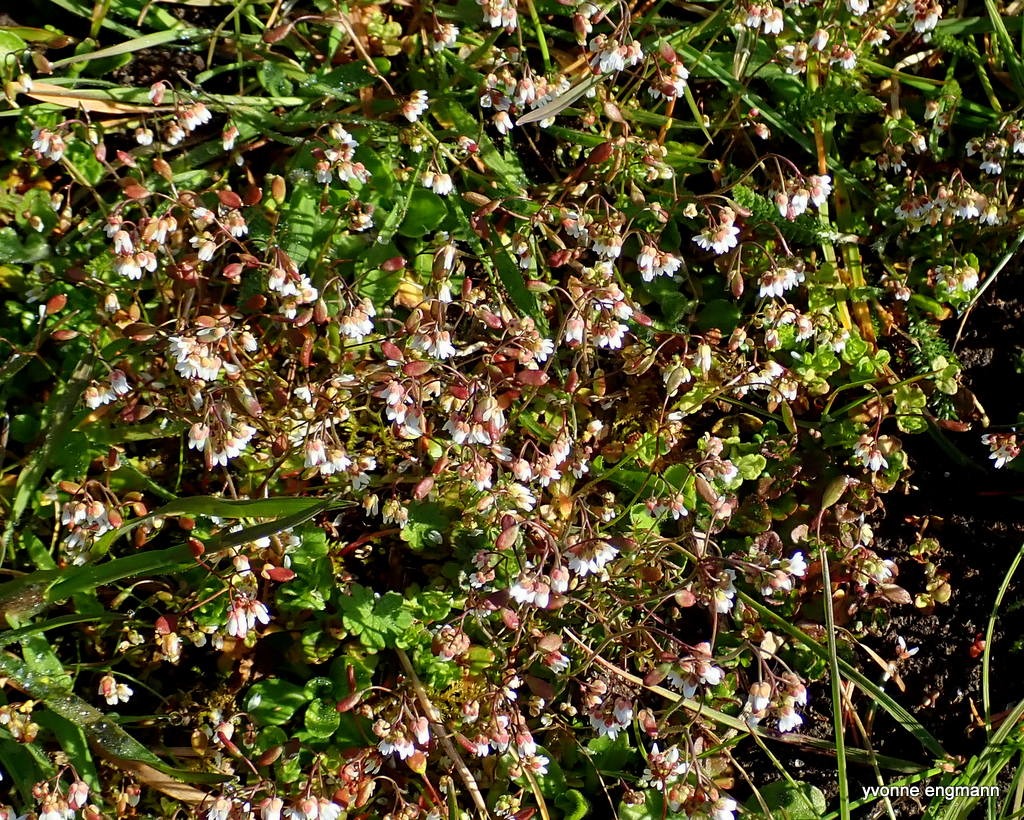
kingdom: Plantae
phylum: Tracheophyta
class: Magnoliopsida
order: Brassicales
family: Brassicaceae
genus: Draba
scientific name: Draba verna
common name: Vår-gæslingeblomst
